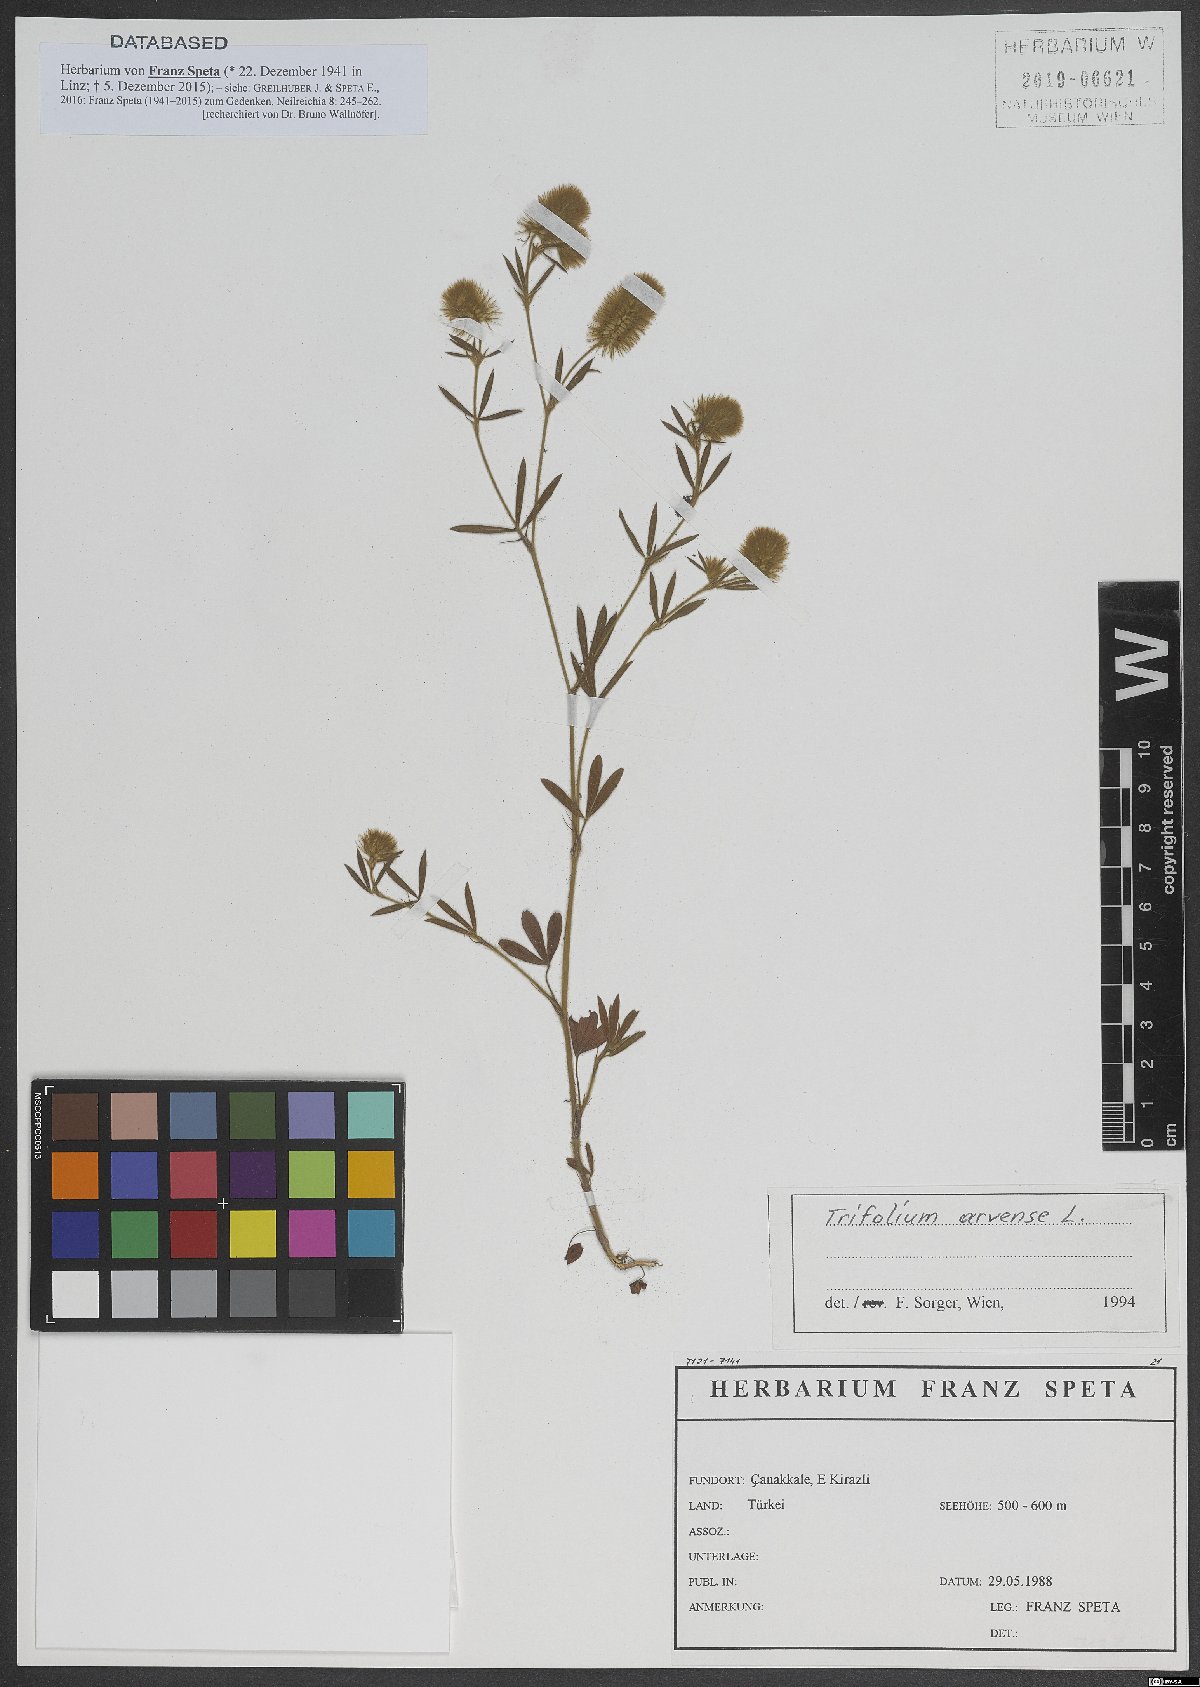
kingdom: Plantae
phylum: Tracheophyta
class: Magnoliopsida
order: Fabales
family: Fabaceae
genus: Trifolium
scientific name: Trifolium arvense
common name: Hare's-foot clover
